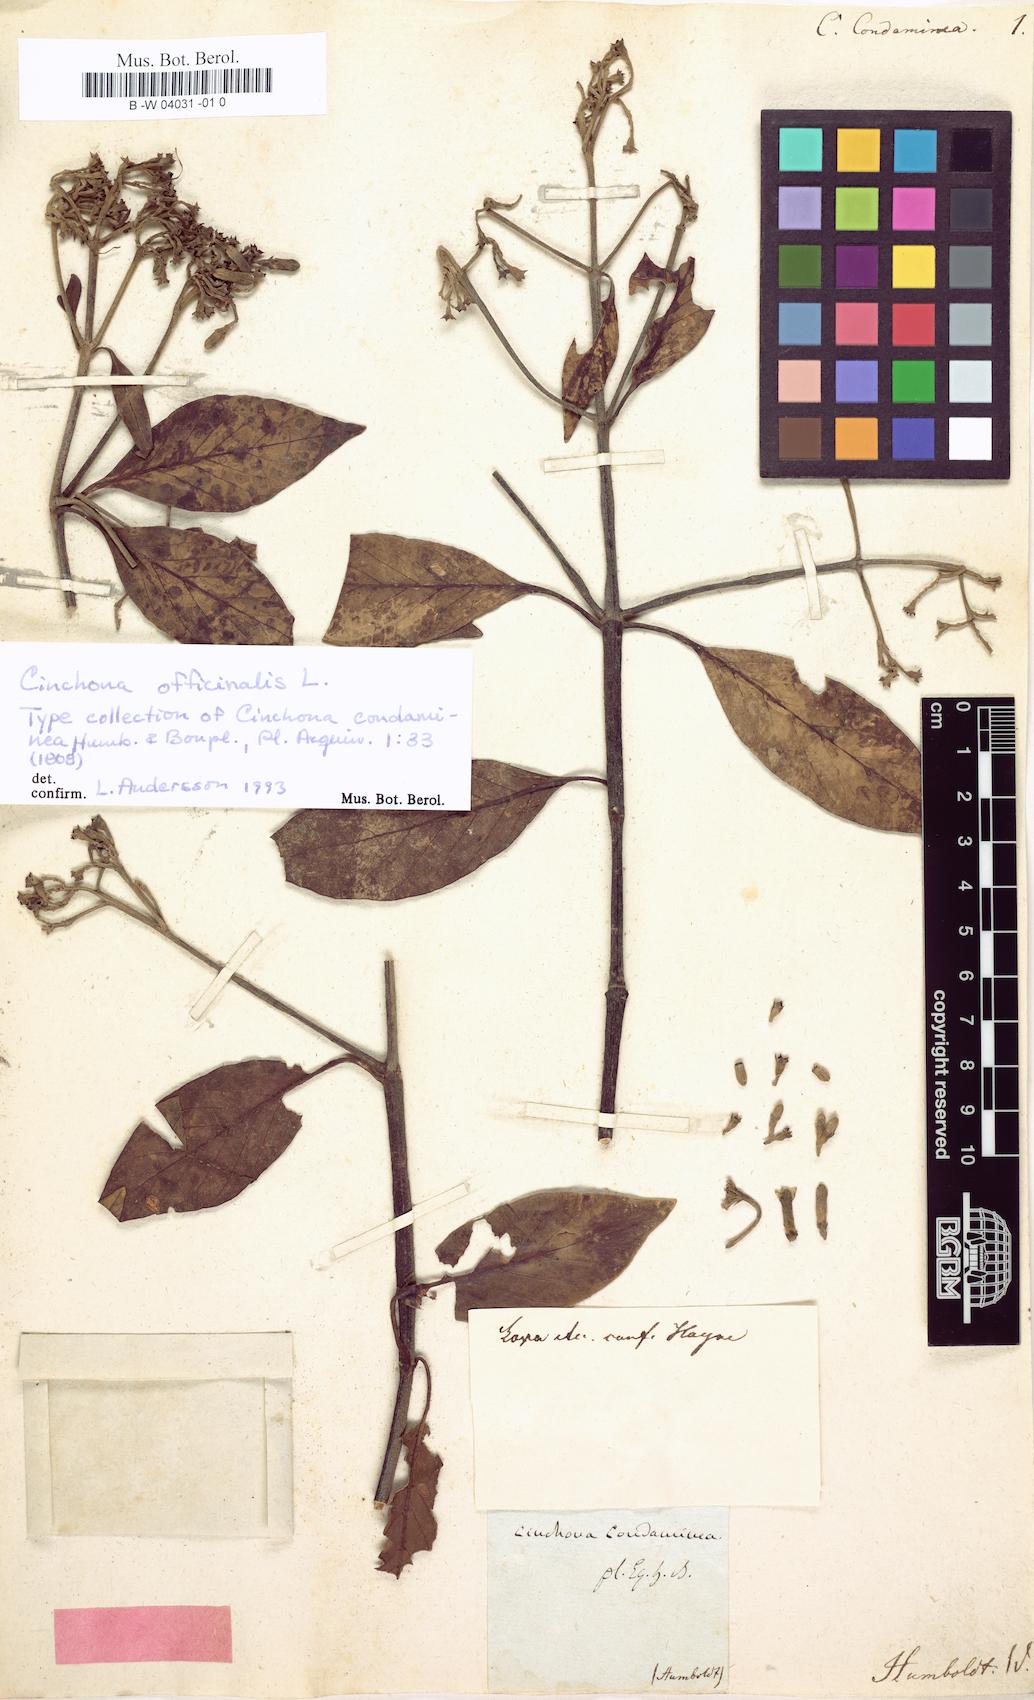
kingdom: Plantae
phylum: Tracheophyta
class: Magnoliopsida
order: Gentianales
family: Rubiaceae
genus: Cinchona
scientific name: Cinchona officinalis
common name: Lojabark
